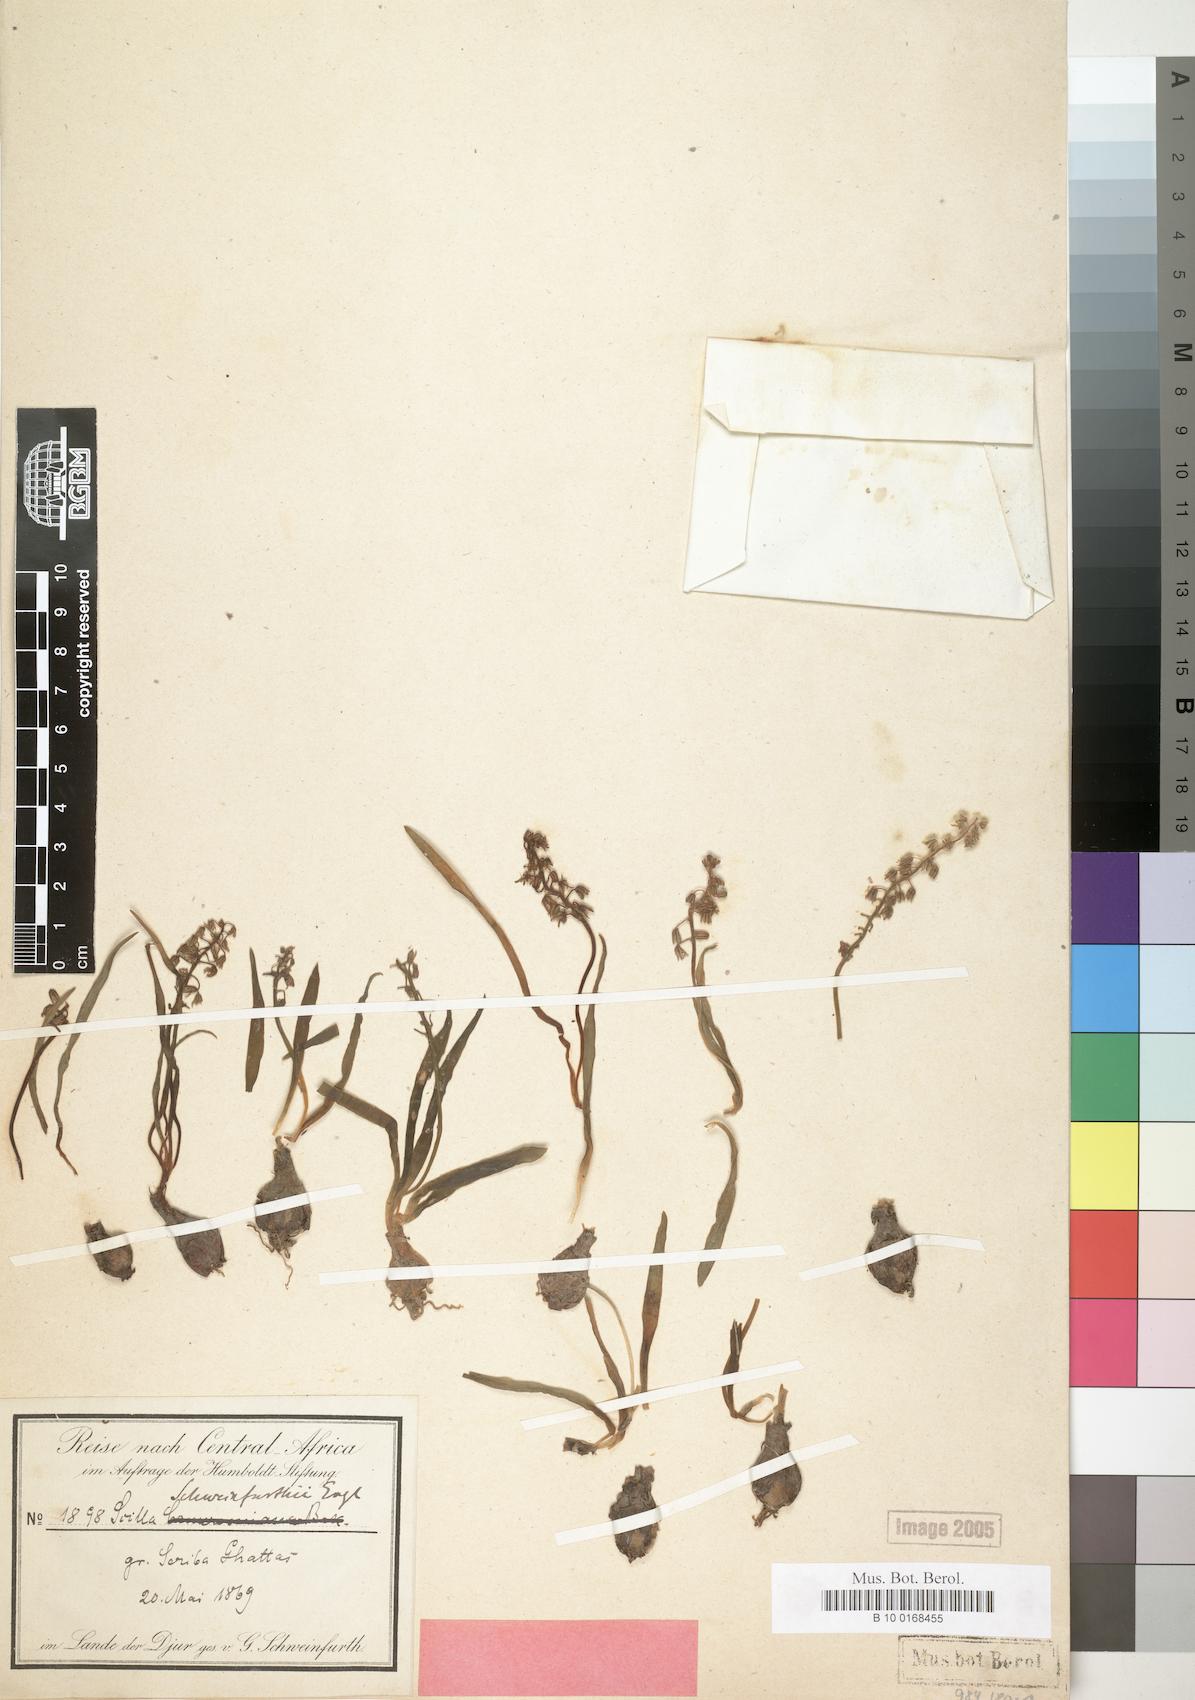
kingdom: Plantae
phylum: Tracheophyta
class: Liliopsida
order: Asparagales
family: Asparagaceae
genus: Scilla
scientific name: Scilla schweinfurthii
